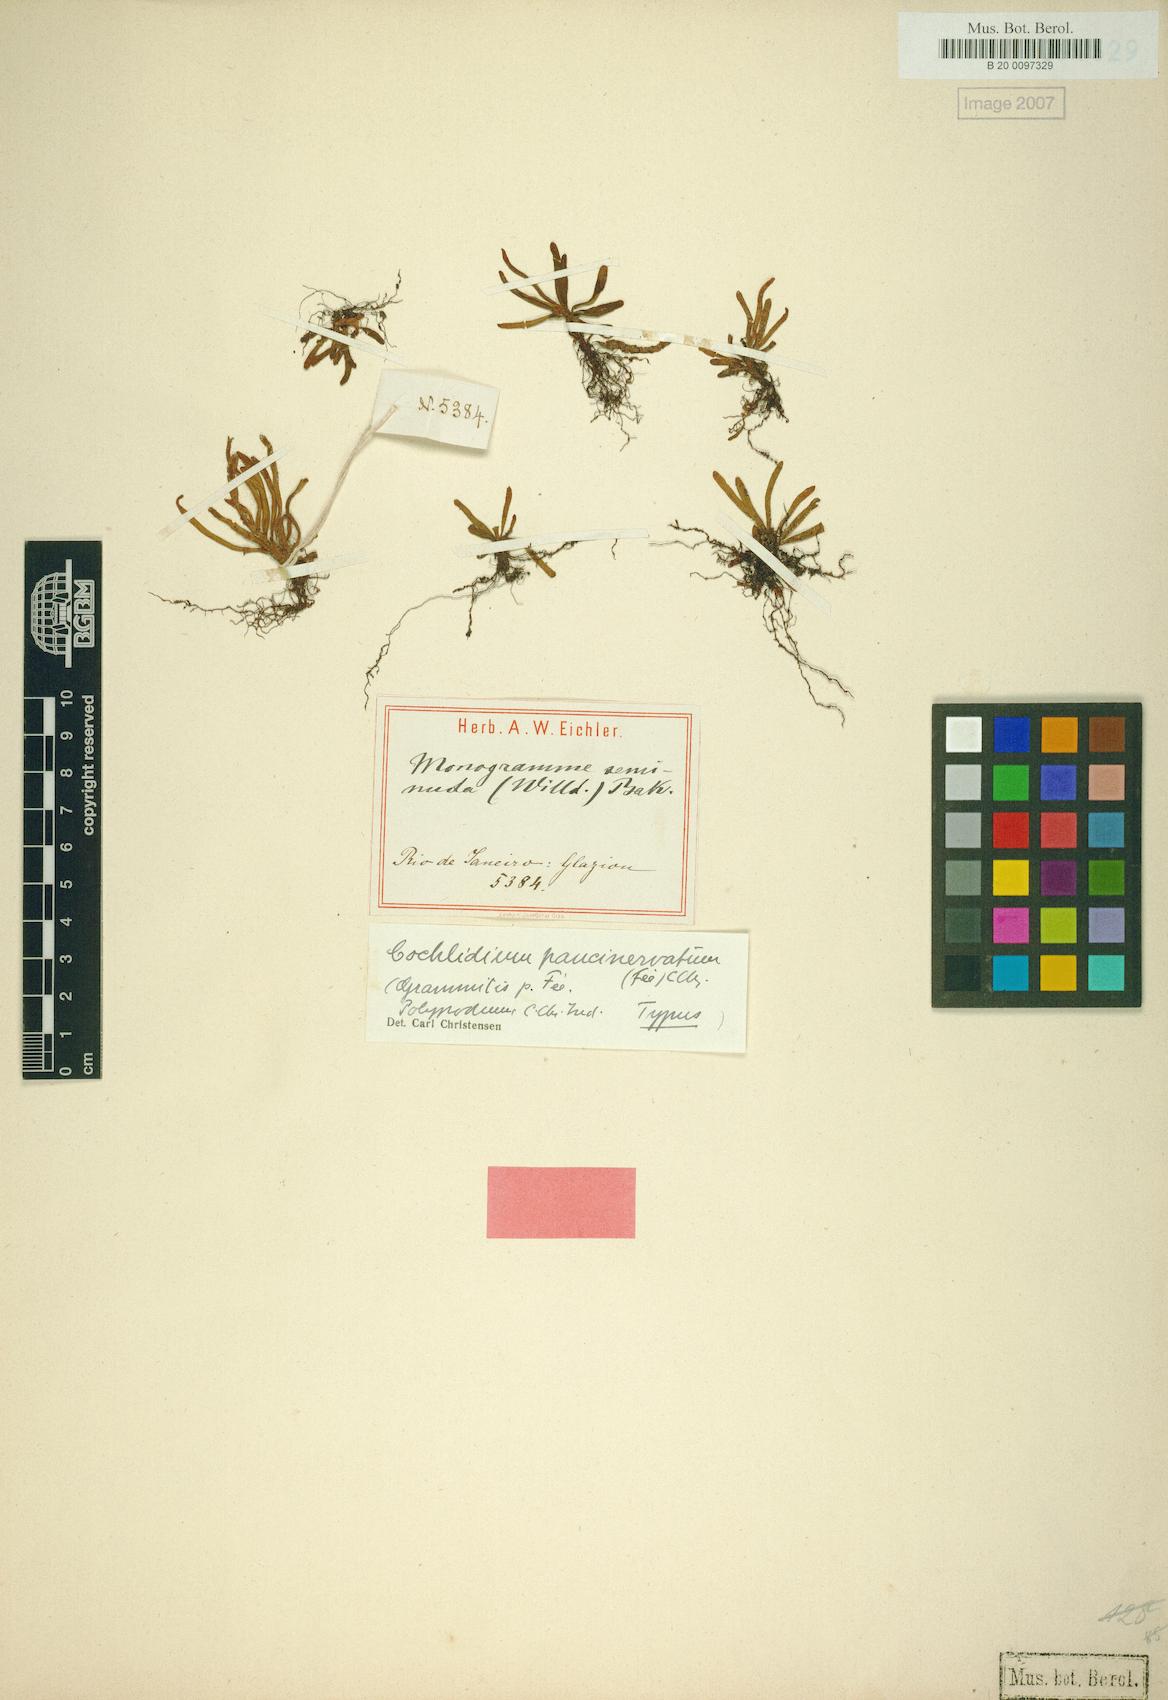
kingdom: Plantae
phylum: Tracheophyta
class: Polypodiopsida
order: Polypodiales
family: Polypodiaceae
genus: Cochlidium
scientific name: Cochlidium punctatum
